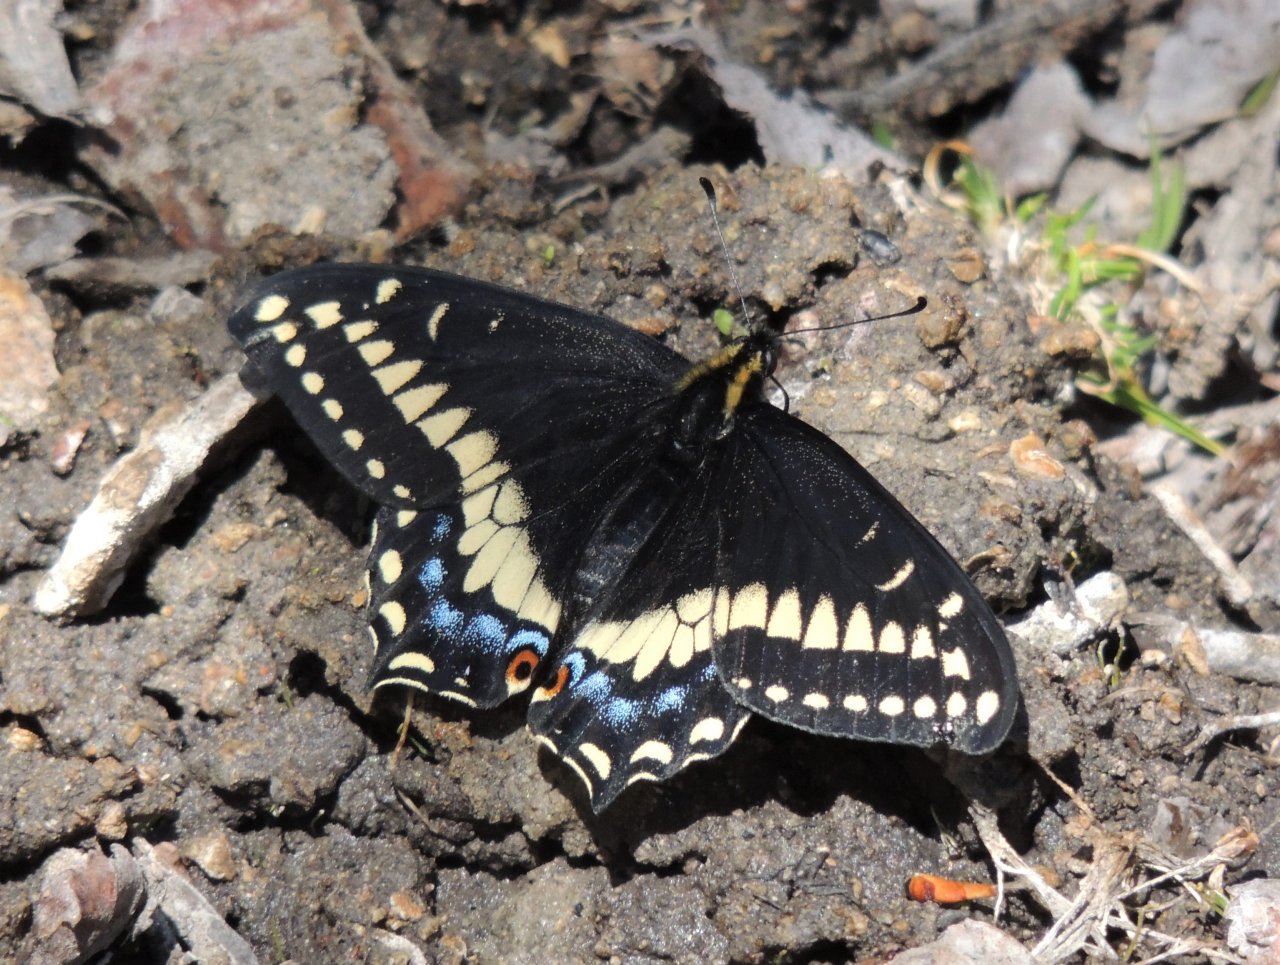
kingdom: Animalia
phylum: Arthropoda
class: Insecta
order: Lepidoptera
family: Papilionidae
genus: Papilio
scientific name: Papilio indra
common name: Indra Swallowtail
